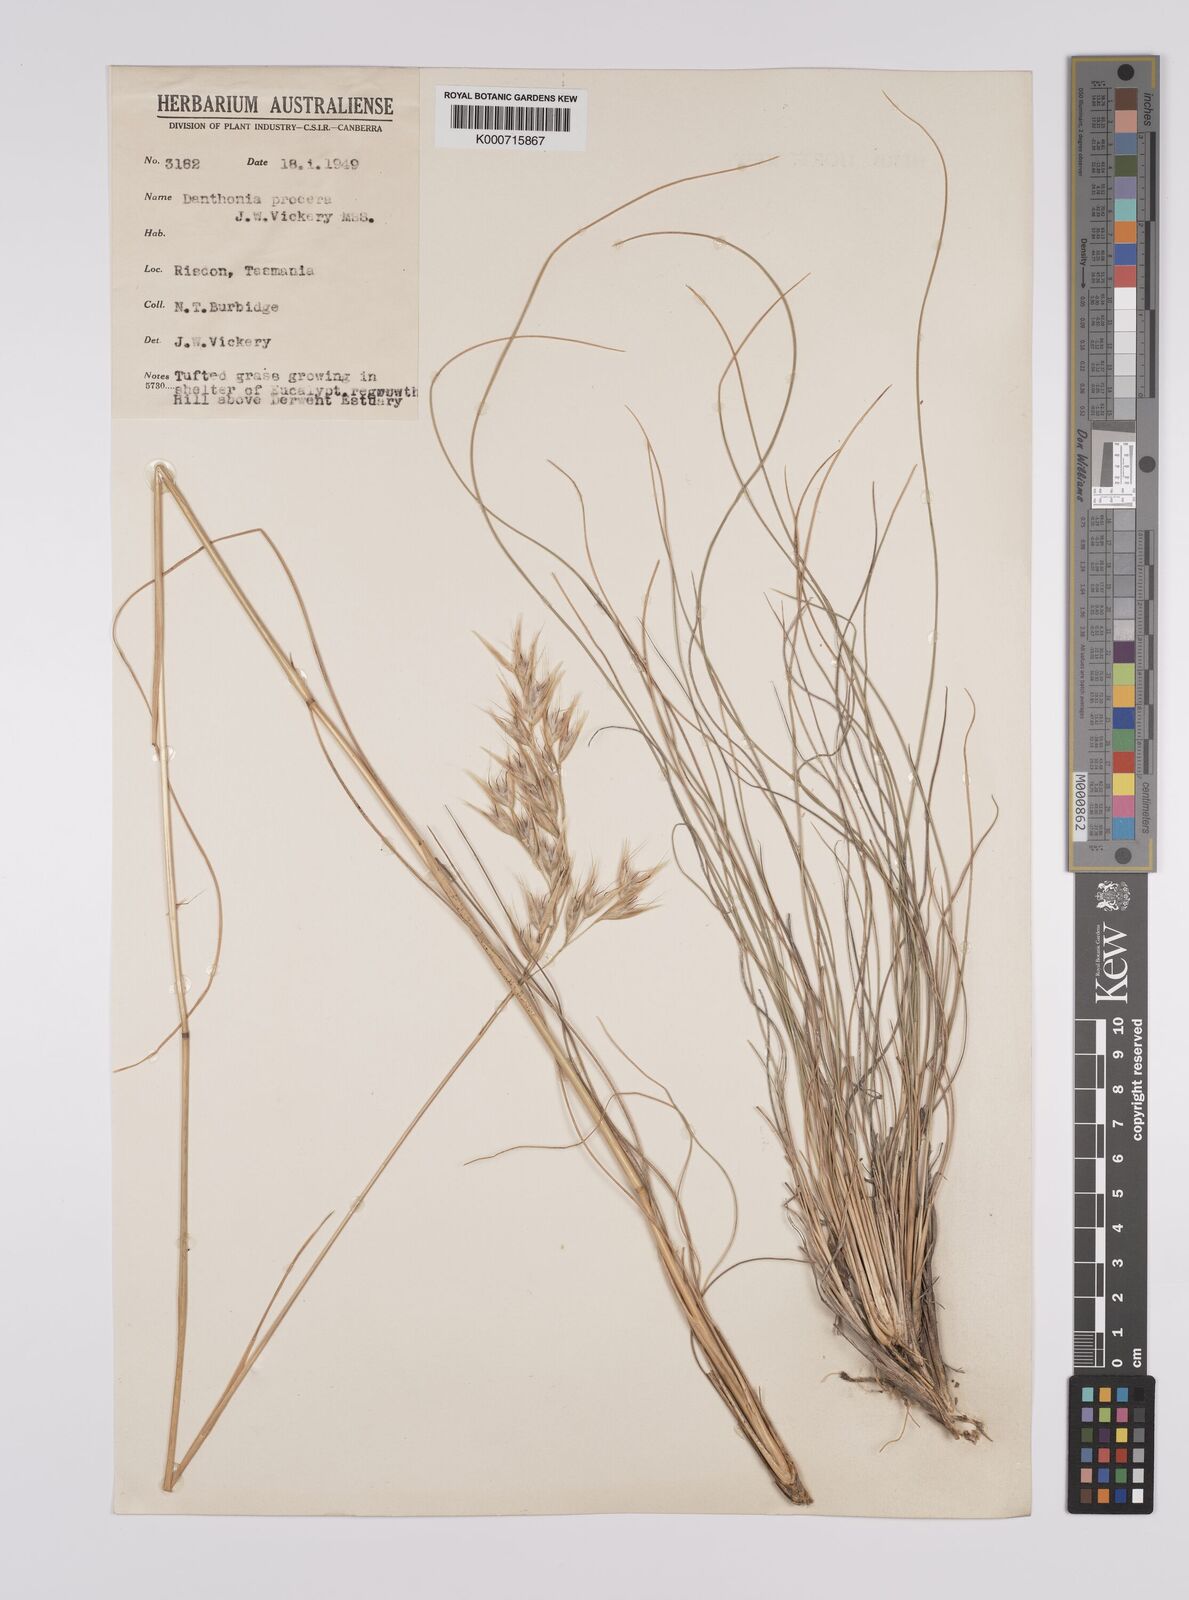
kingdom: Plantae
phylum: Tracheophyta
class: Liliopsida
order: Poales
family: Poaceae
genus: Rytidosperma
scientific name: Rytidosperma indutum
